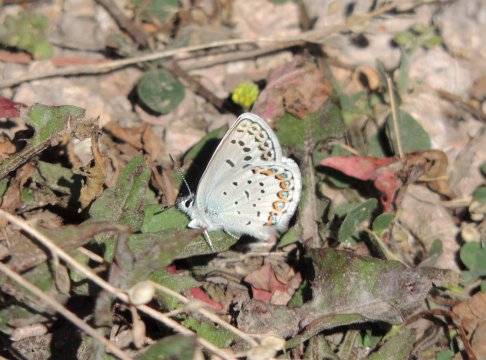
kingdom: Animalia
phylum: Arthropoda
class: Insecta
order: Lepidoptera
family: Lycaenidae
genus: Lycaeides
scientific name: Lycaeides melissa
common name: Melissa Blue
